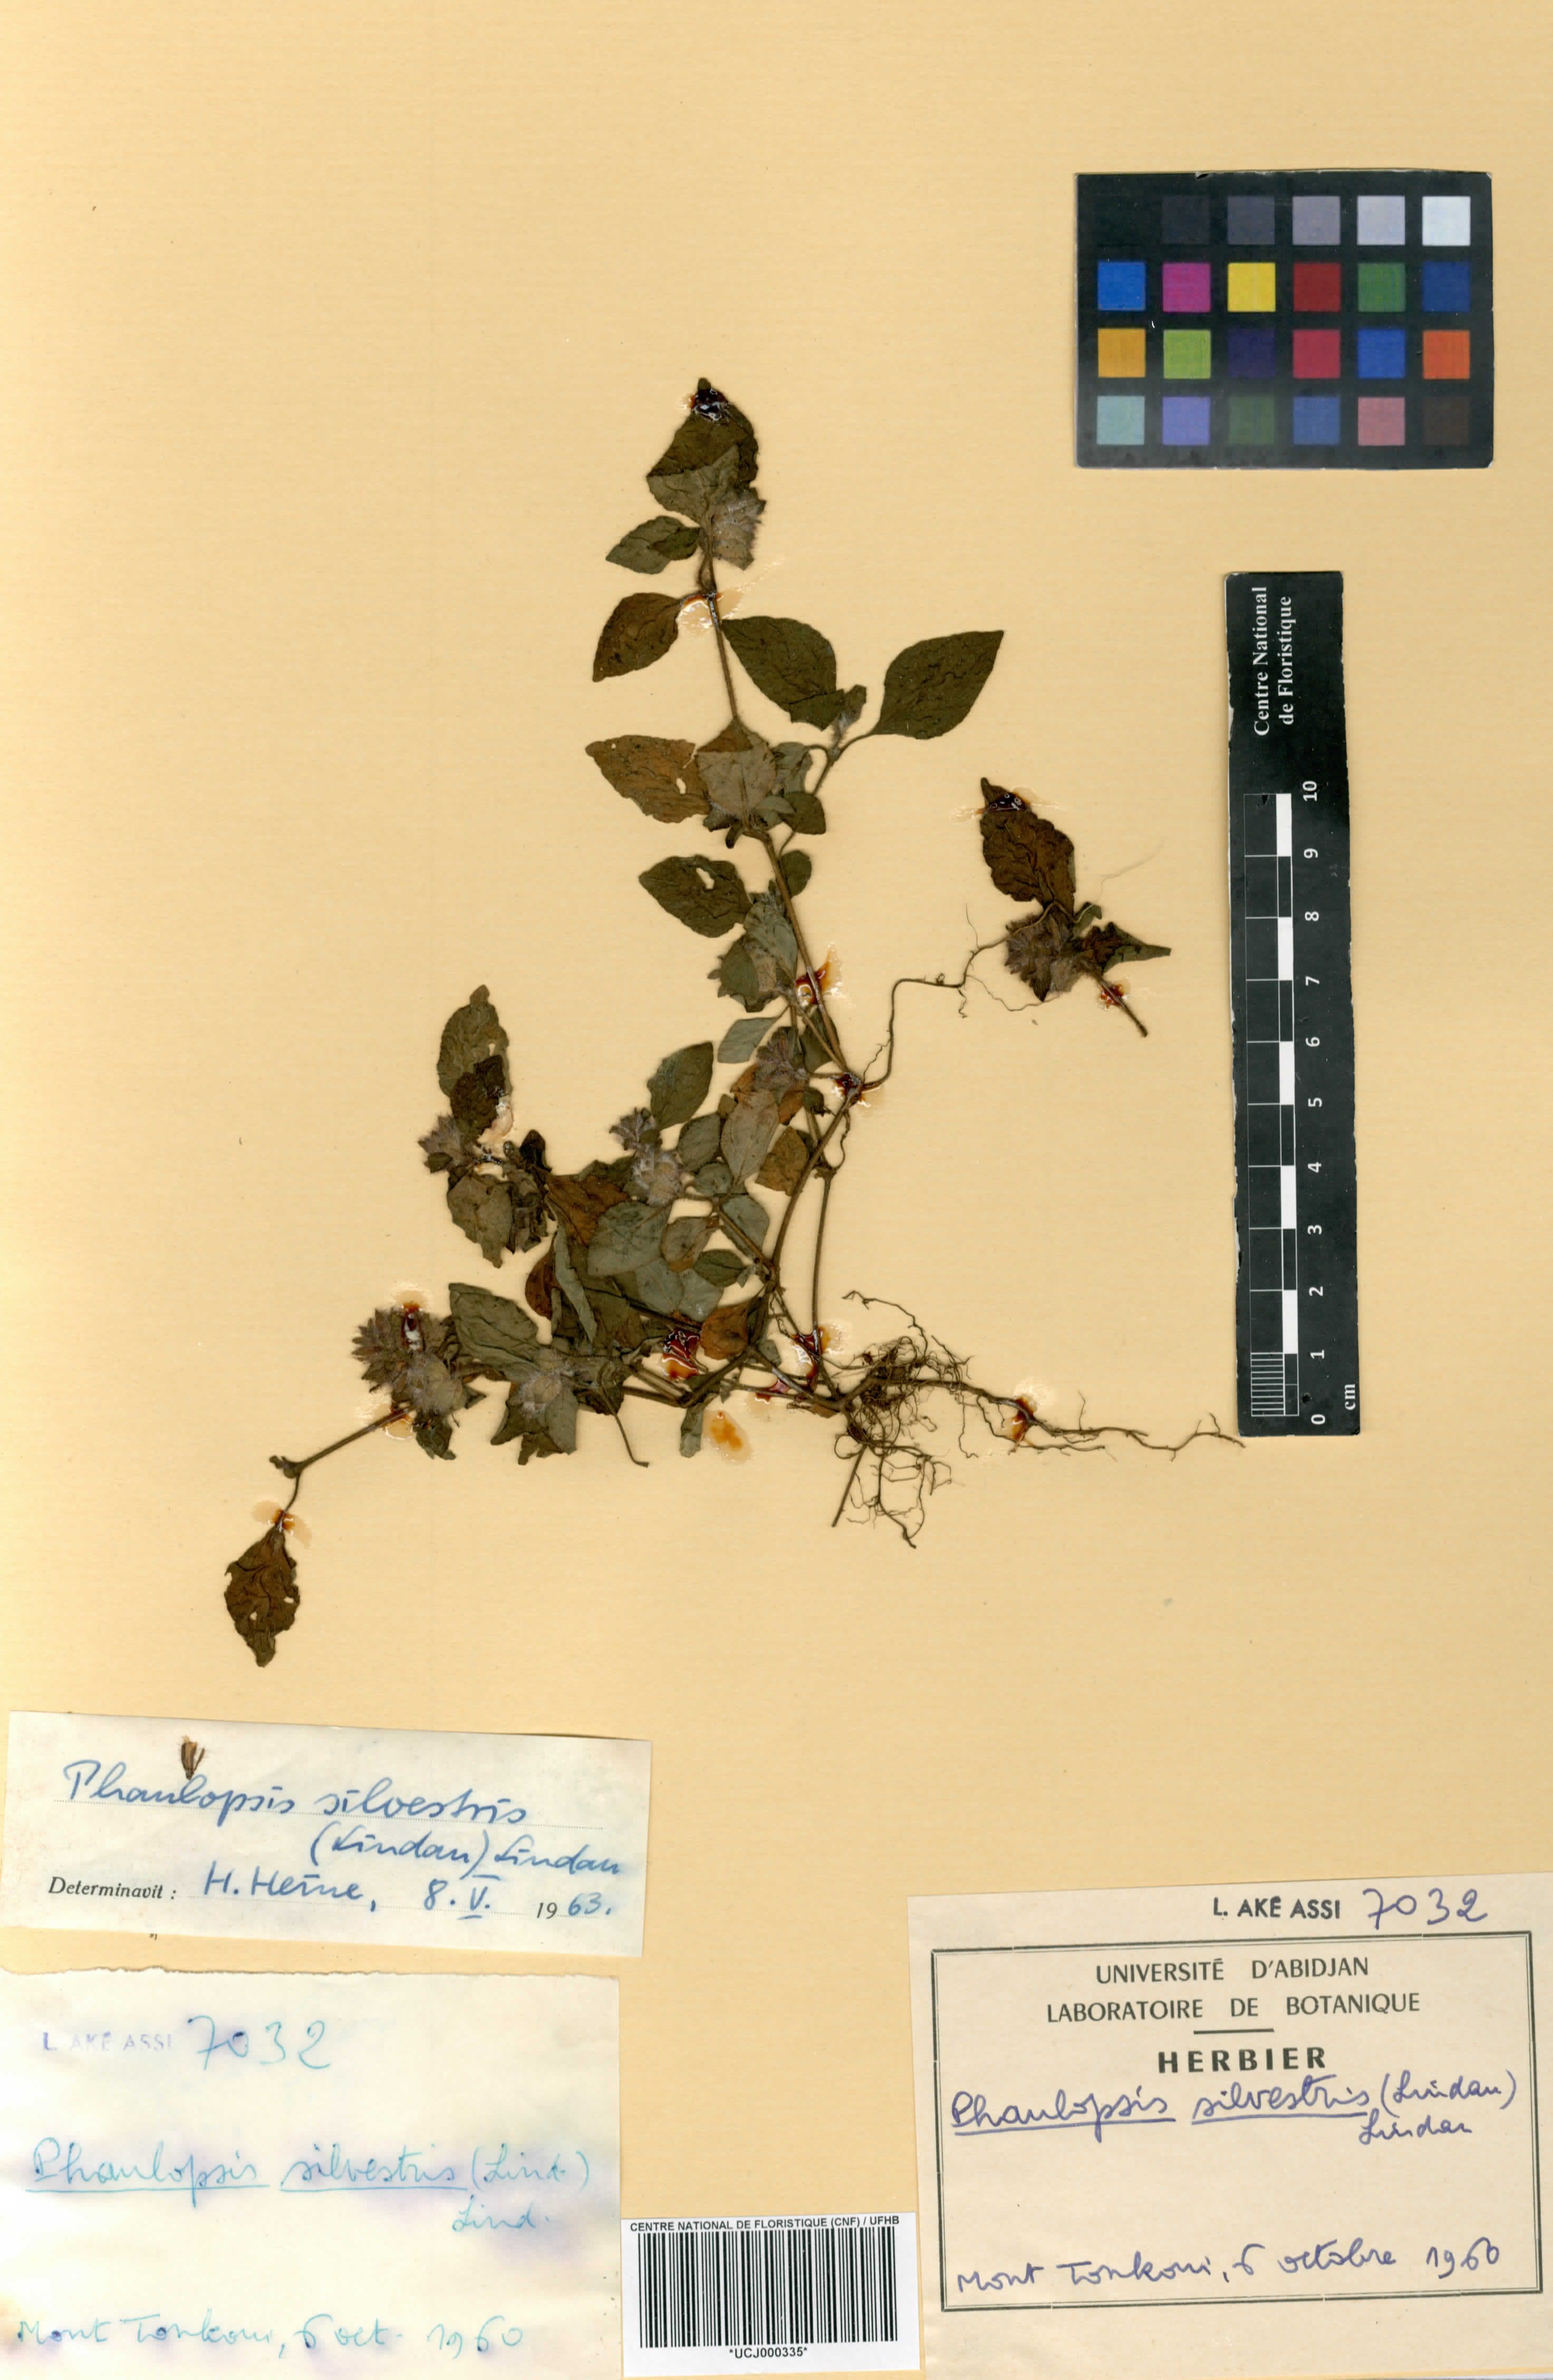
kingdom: Plantae
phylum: Tracheophyta
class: Magnoliopsida
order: Lamiales
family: Acanthaceae
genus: Phaulopsis
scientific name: Phaulopsis angolana
